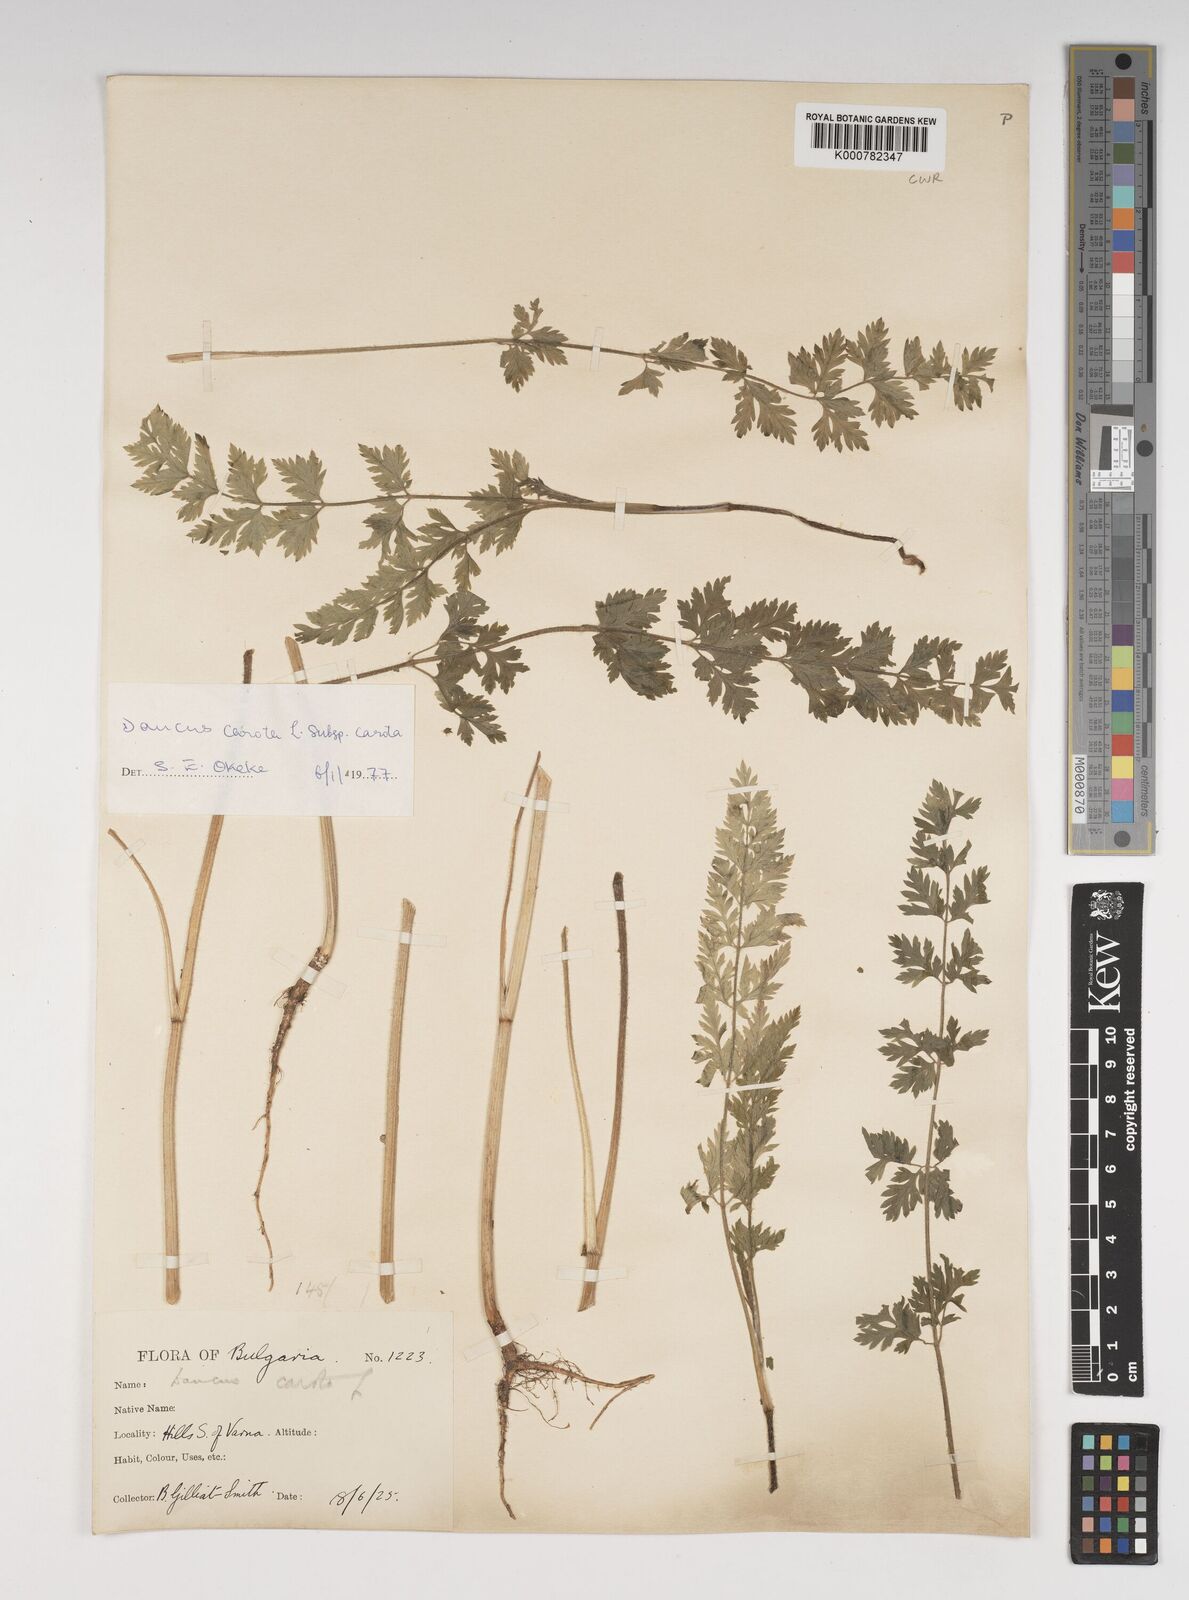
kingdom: Plantae
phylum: Tracheophyta
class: Magnoliopsida
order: Apiales
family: Apiaceae
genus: Daucus
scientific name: Daucus carota
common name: Wild carrot
